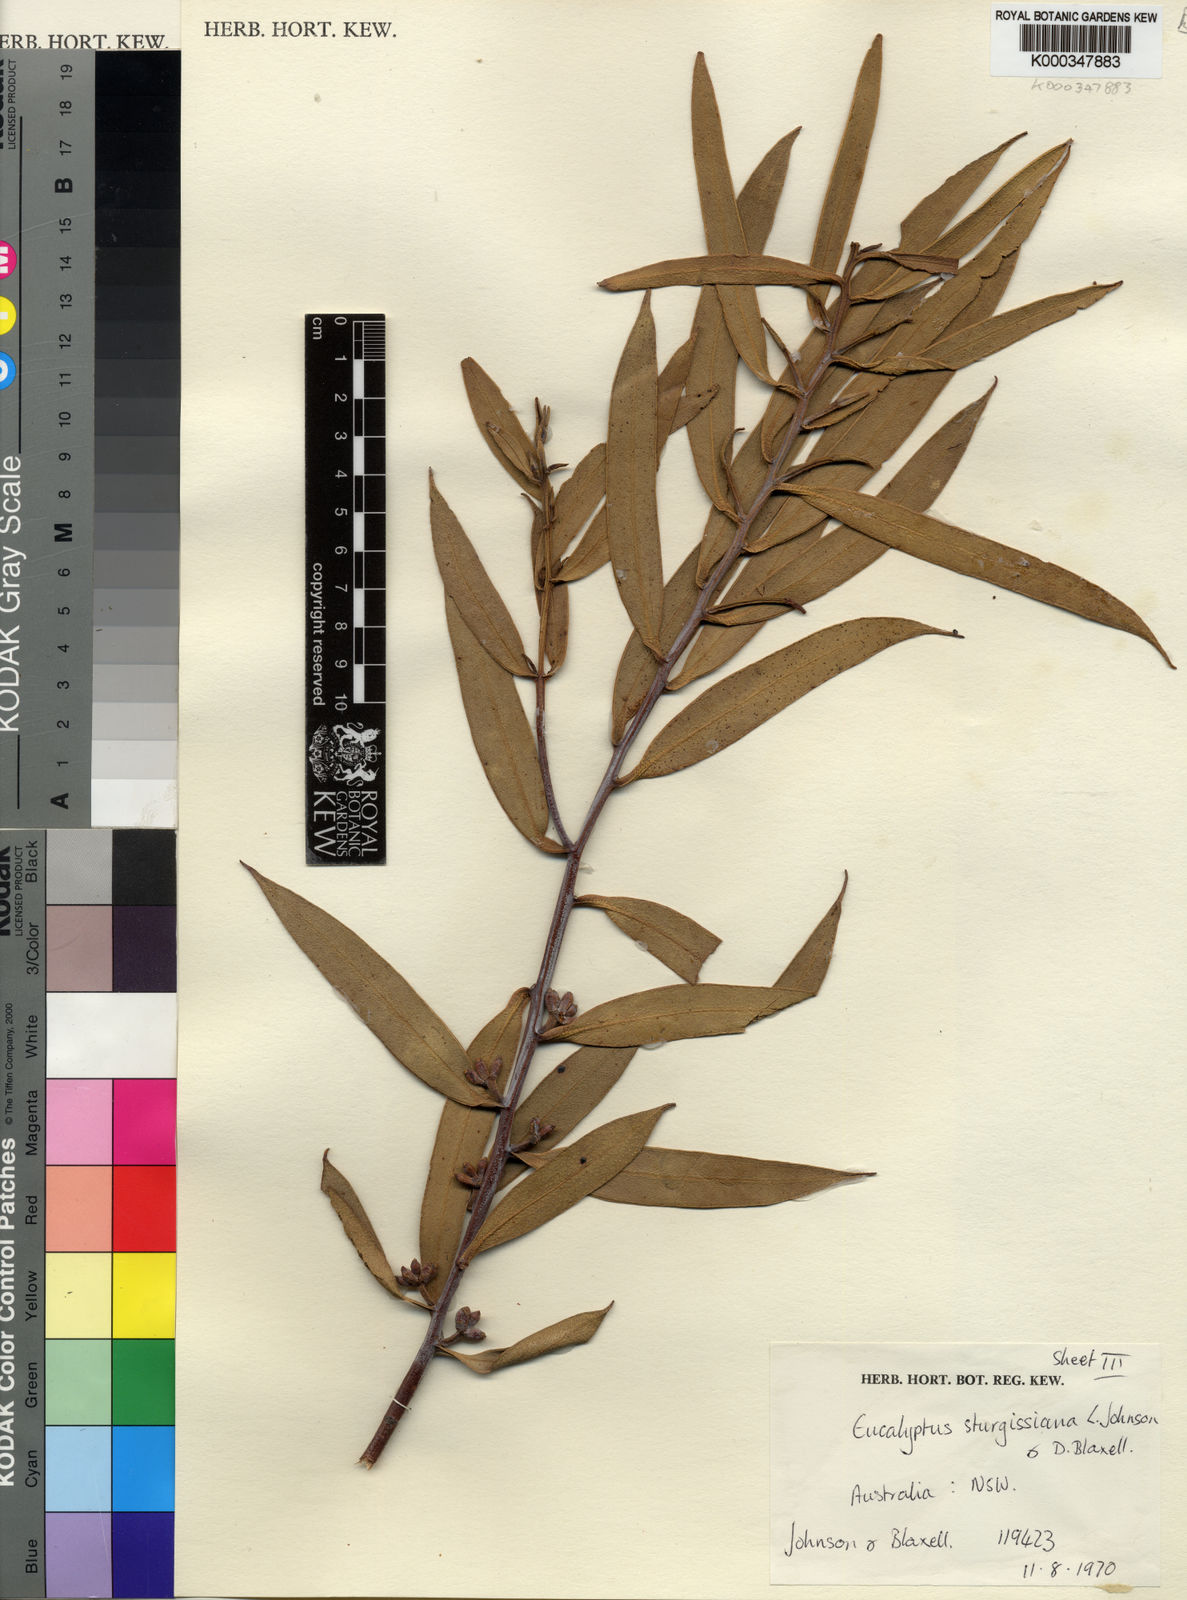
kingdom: Plantae
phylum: Tracheophyta
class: Magnoliopsida
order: Myrtales
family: Myrtaceae
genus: Eucalyptus
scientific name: Eucalyptus sturgissiana
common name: Ettrema mallee
